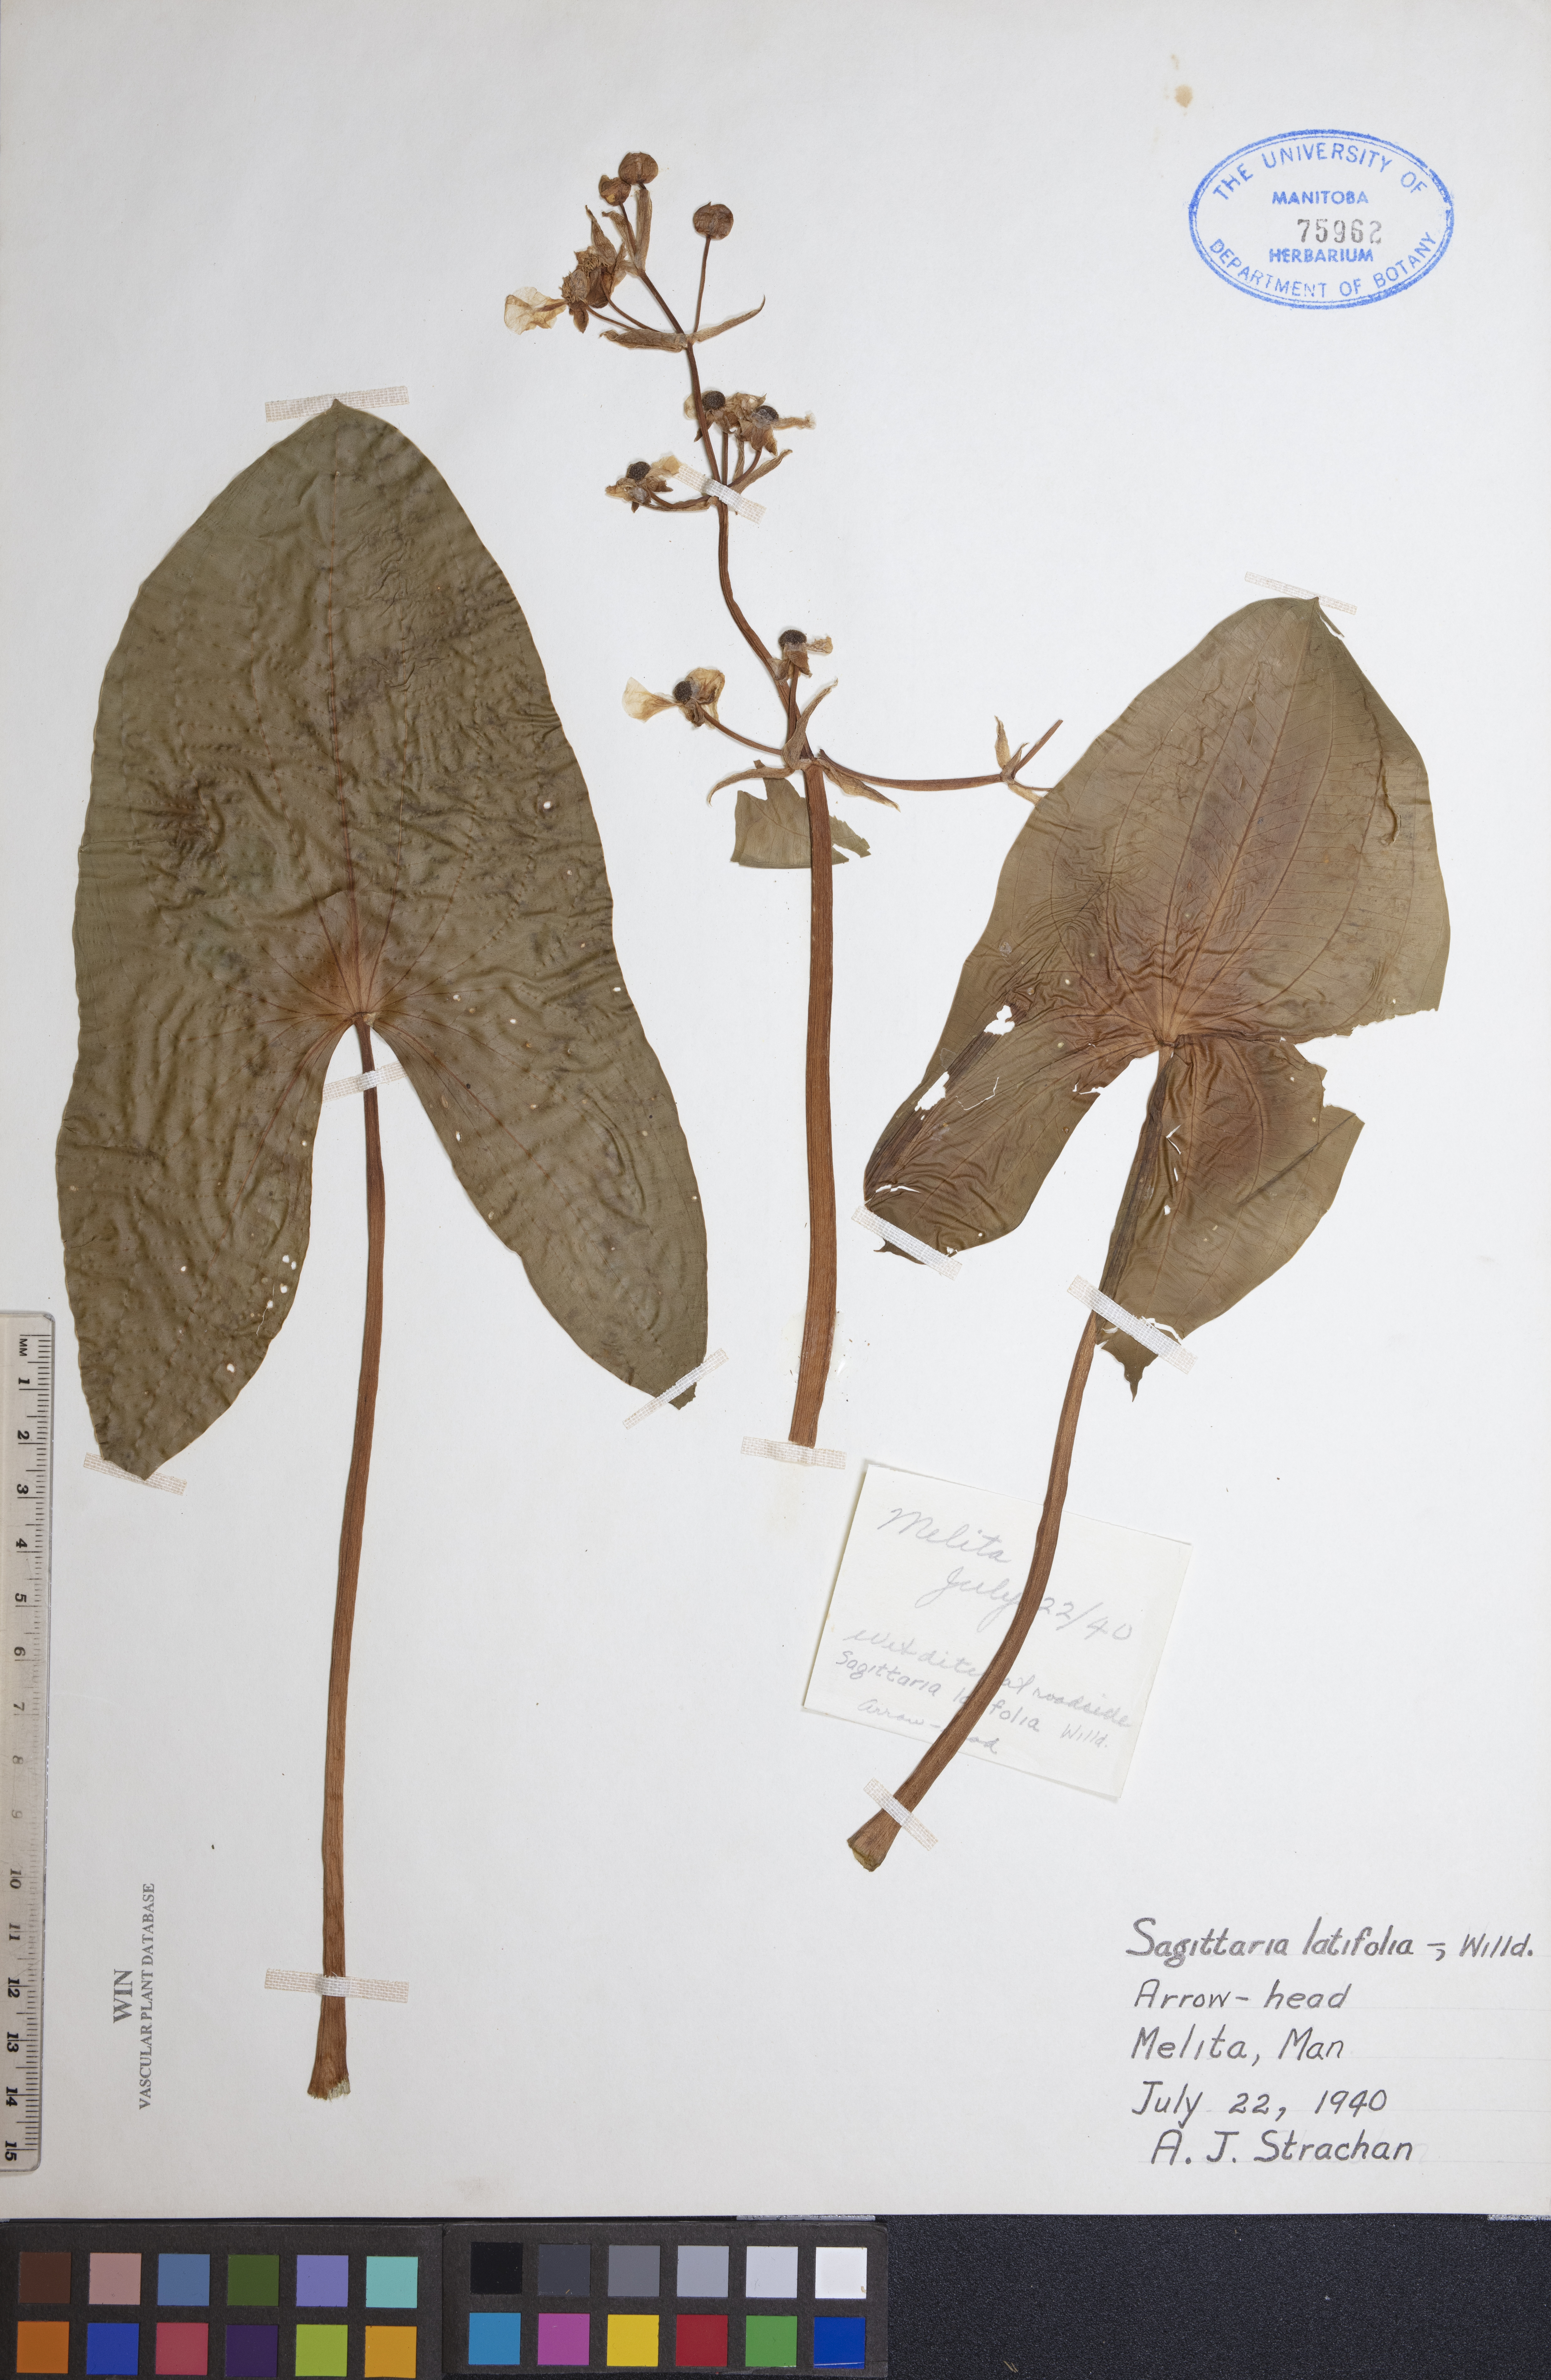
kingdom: Plantae
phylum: Tracheophyta
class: Liliopsida
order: Alismatales
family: Alismataceae
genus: Sagittaria
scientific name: Sagittaria latifolia
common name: Duck-potato
